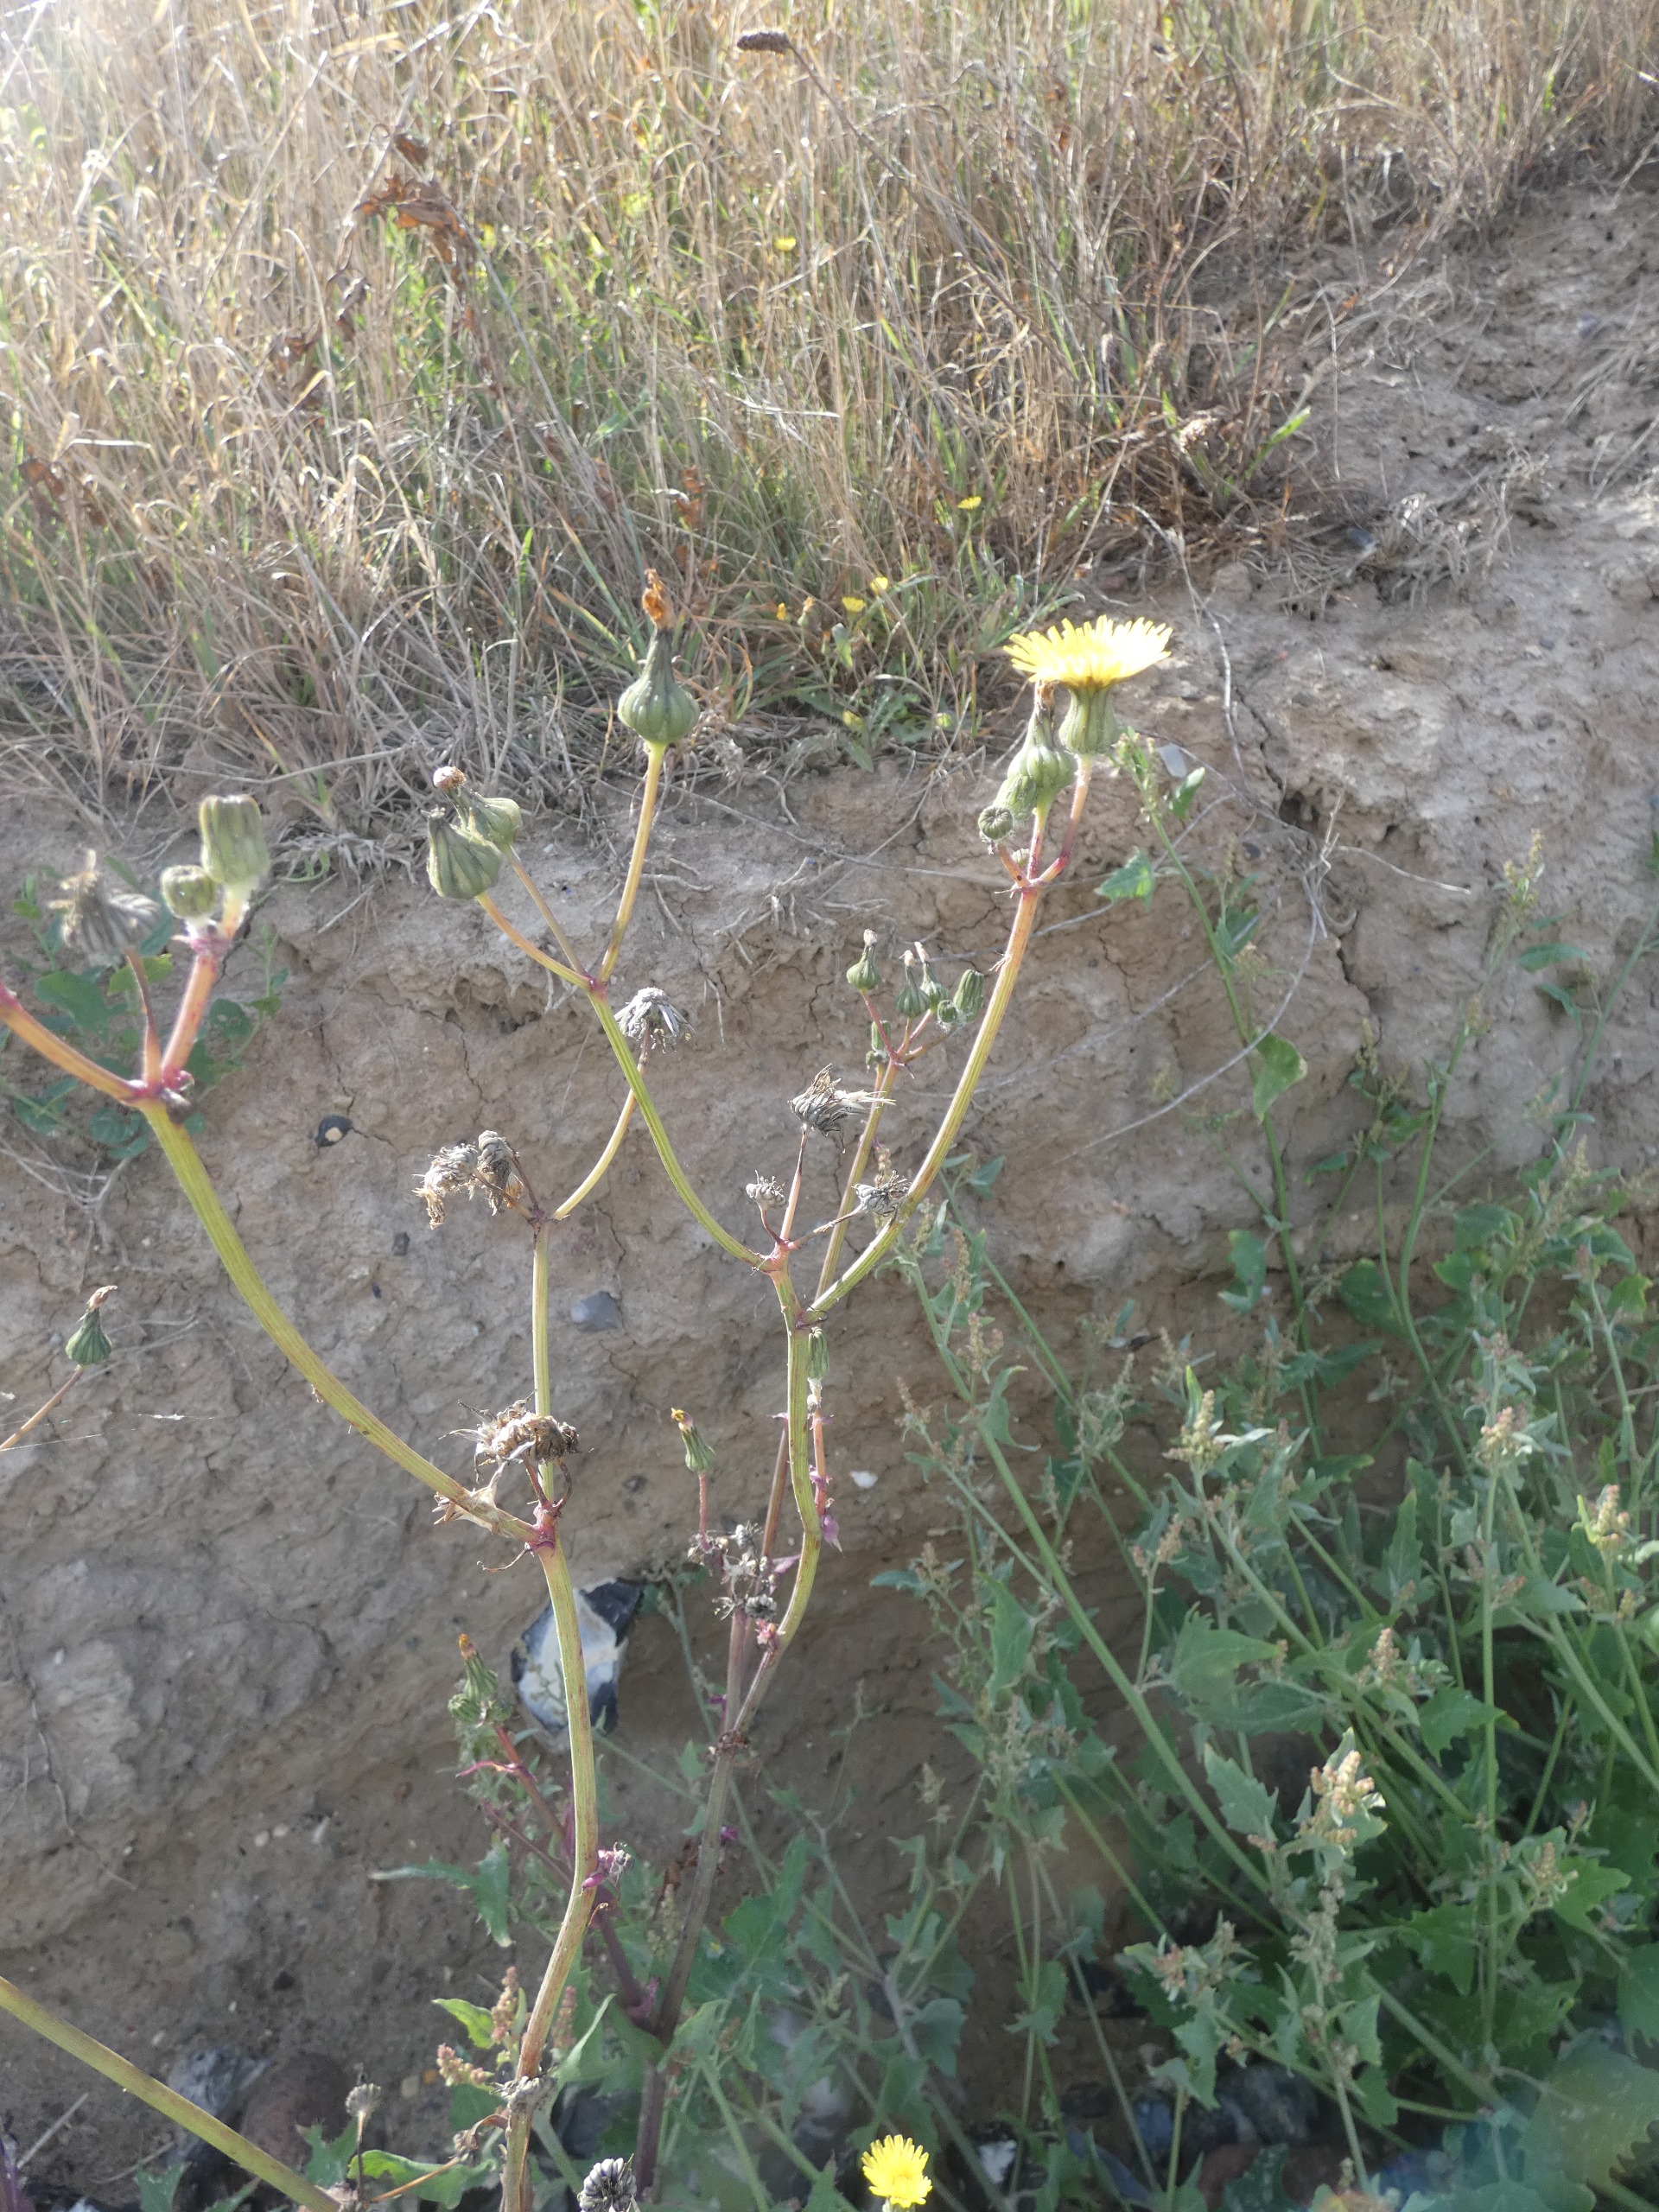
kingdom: Plantae
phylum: Tracheophyta
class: Magnoliopsida
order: Asterales
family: Asteraceae
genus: Sonchus
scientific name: Sonchus oleraceus
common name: Almindelig svinemælk
